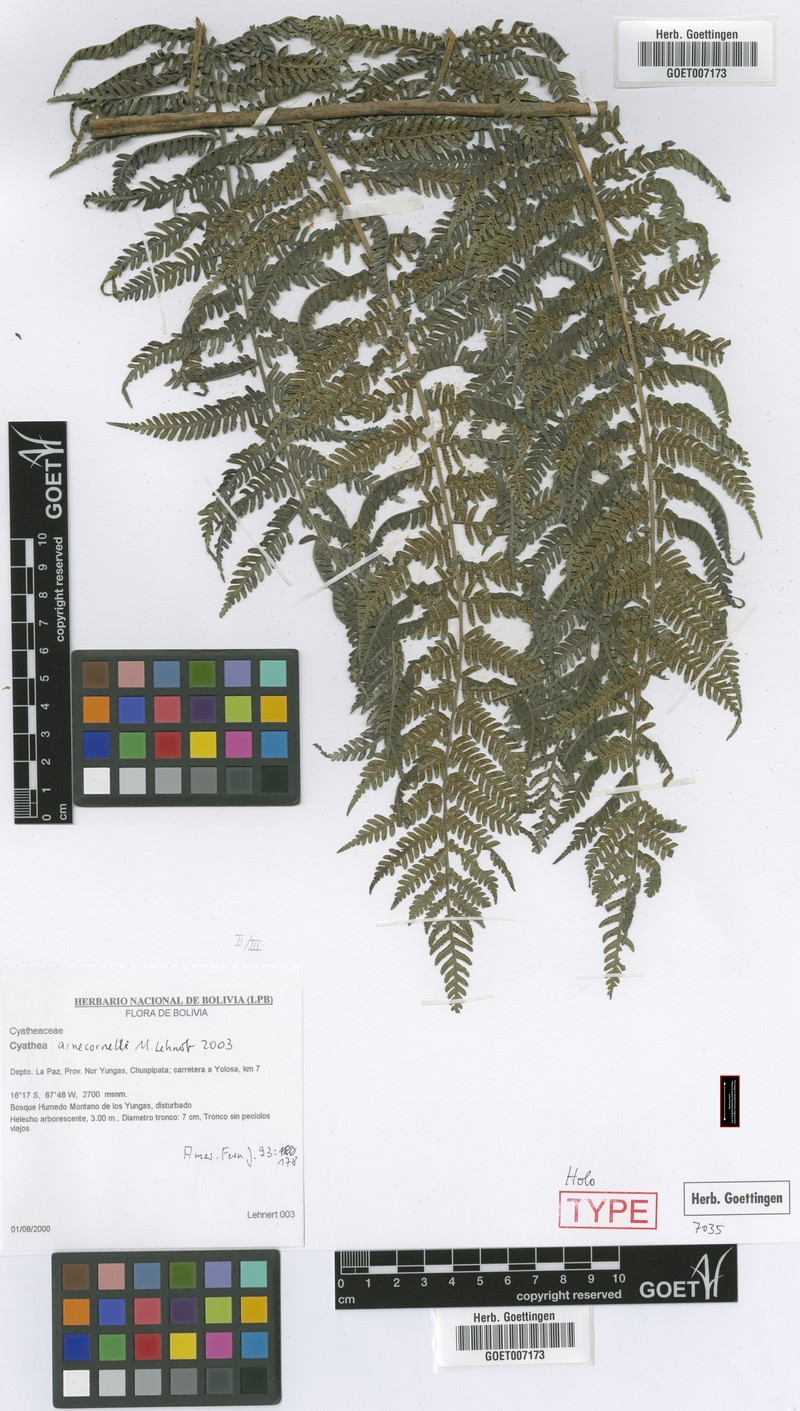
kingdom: Plantae
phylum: Tracheophyta
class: Polypodiopsida
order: Cyatheales
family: Cyatheaceae
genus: Cyathea
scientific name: Cyathea arnecornelii
